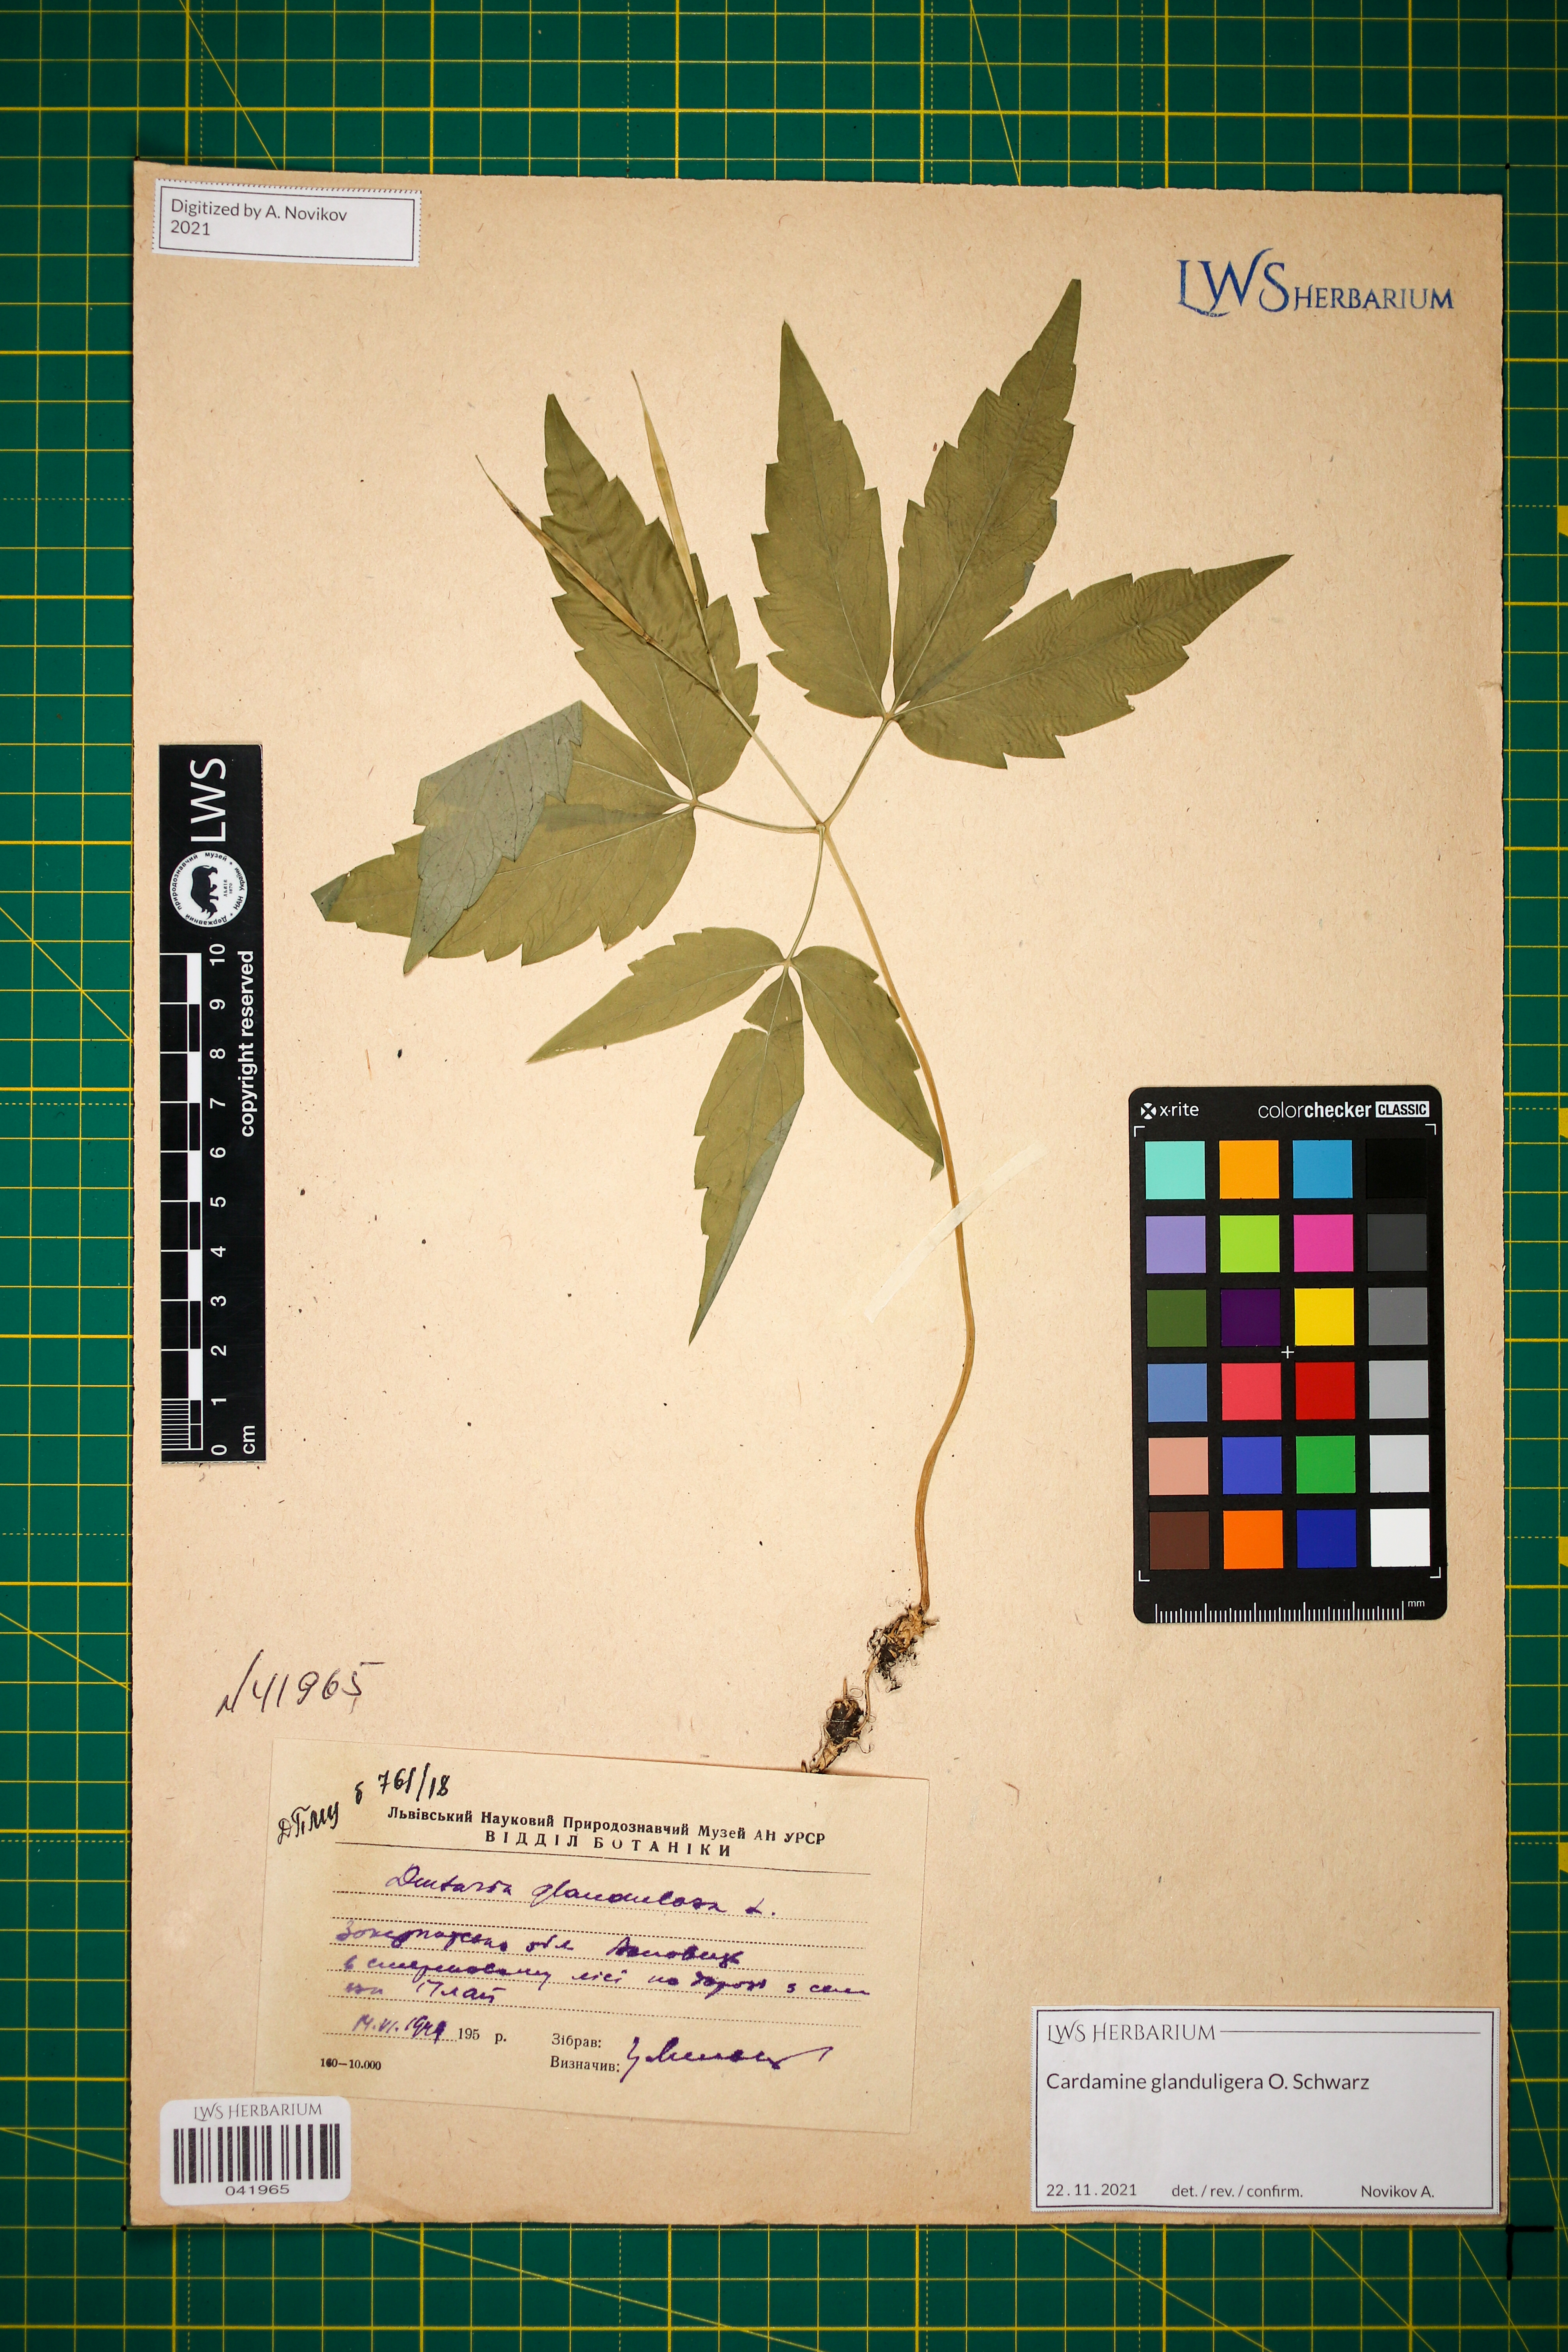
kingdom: Plantae
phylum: Tracheophyta
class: Magnoliopsida
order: Brassicales
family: Brassicaceae
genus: Cardamine
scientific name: Cardamine glanduligera
